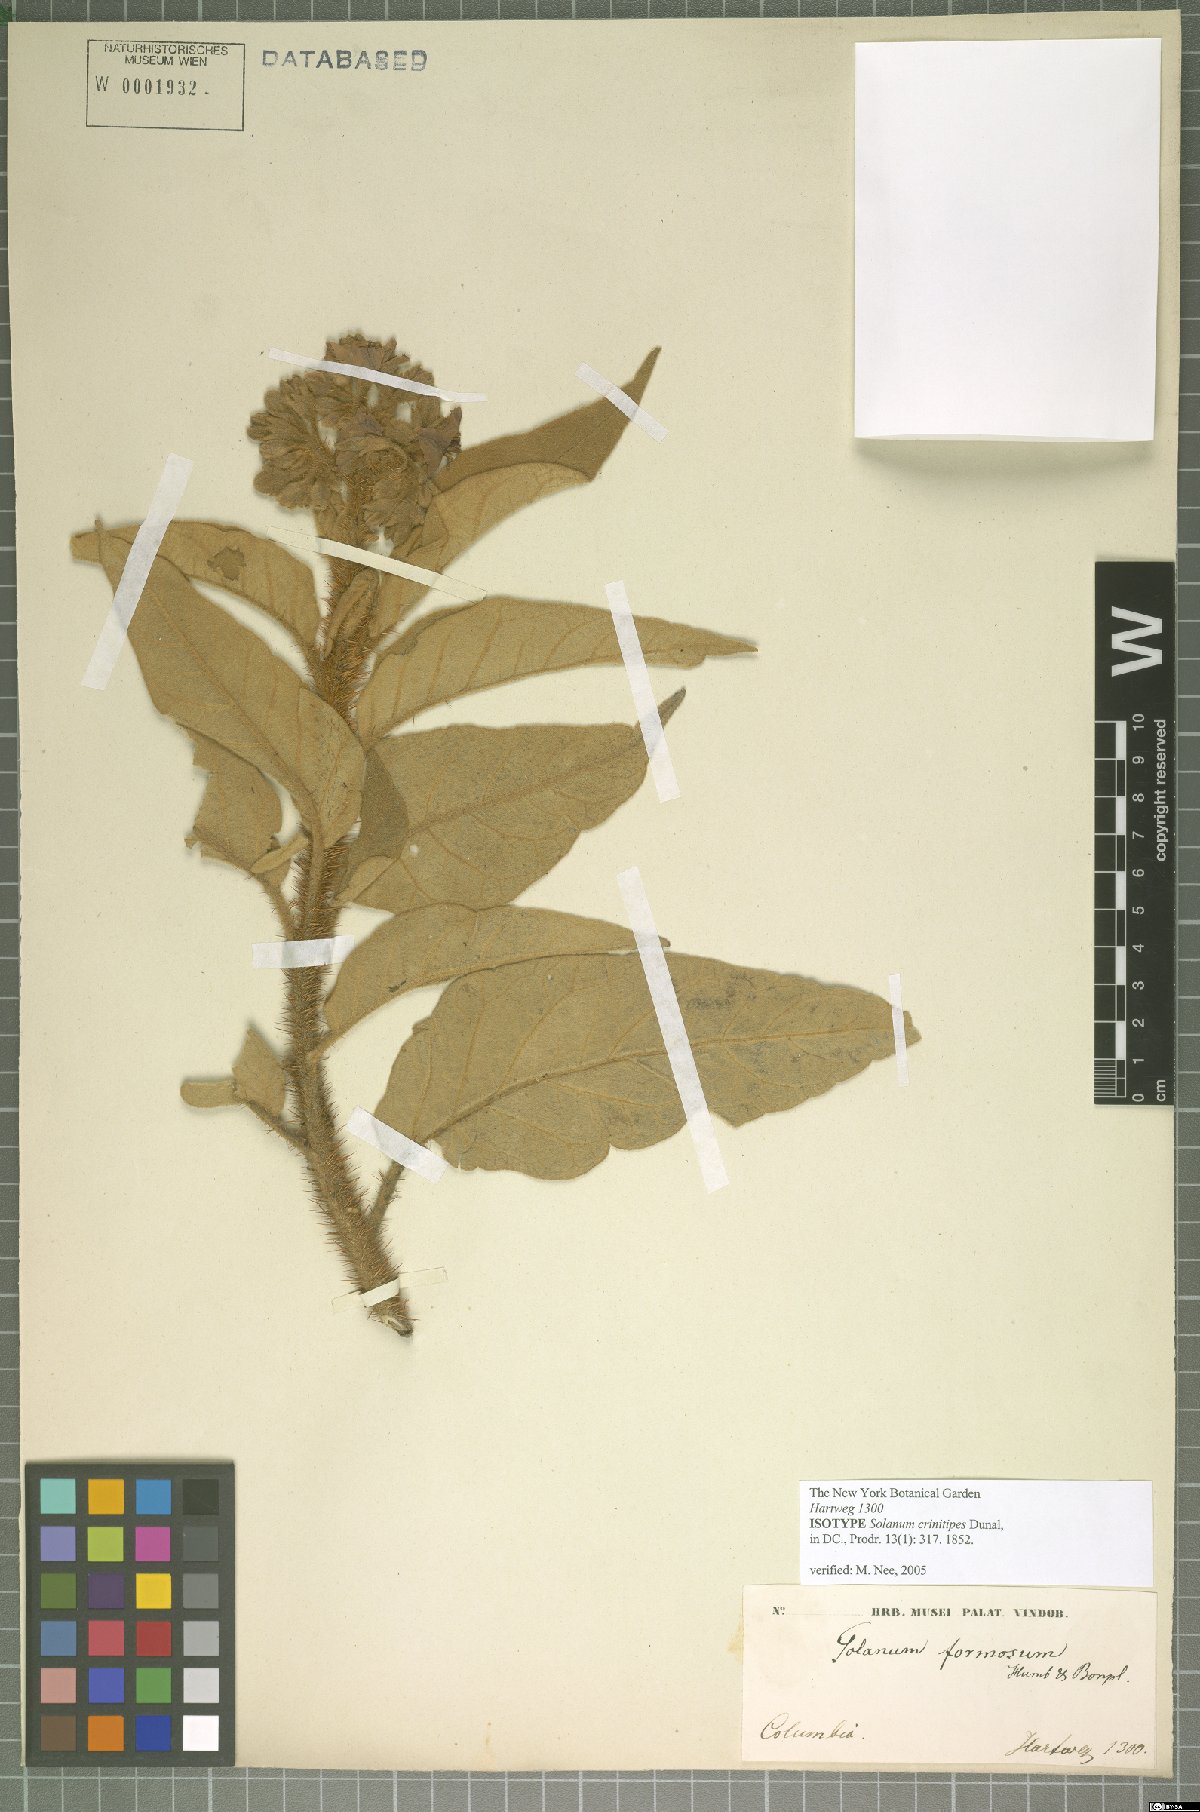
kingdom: Plantae
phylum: Tracheophyta
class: Magnoliopsida
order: Solanales
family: Solanaceae
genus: Solanum
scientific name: Solanum crinitipes
